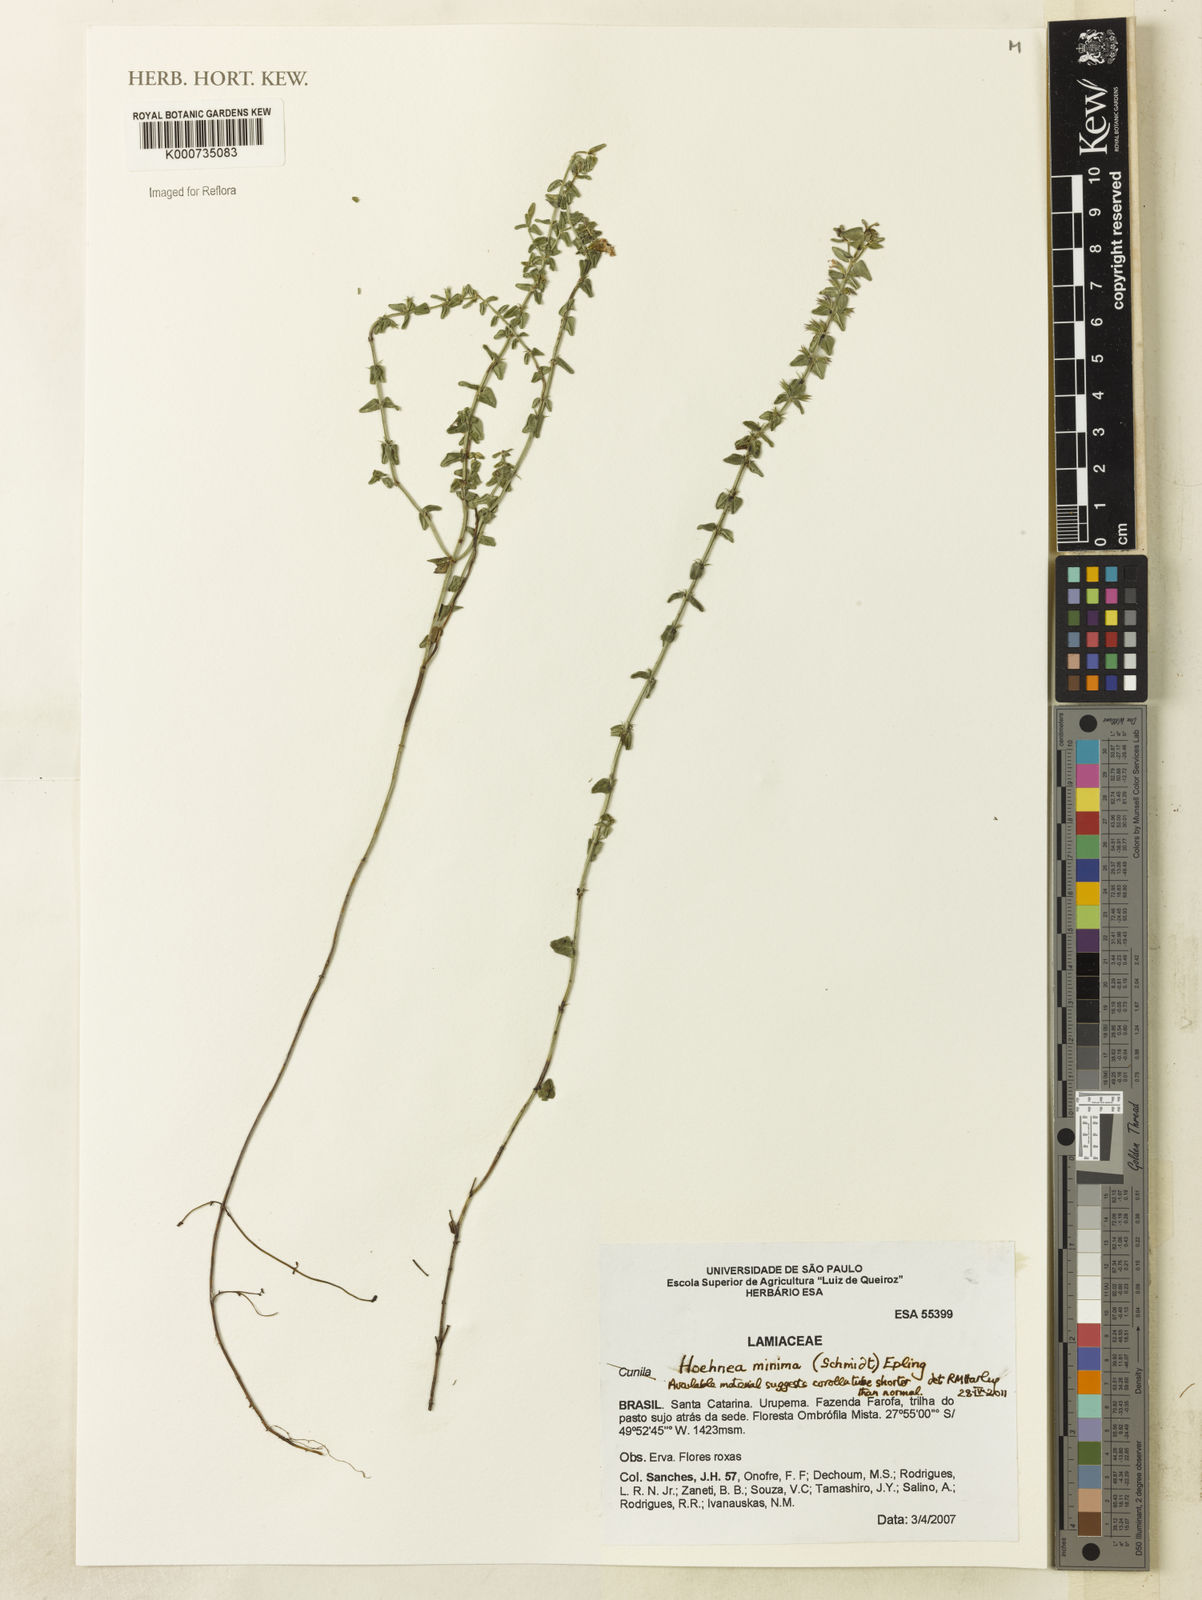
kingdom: Plantae
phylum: Tracheophyta
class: Magnoliopsida
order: Lamiales
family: Lamiaceae
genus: Hoehnea
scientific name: Hoehnea minima
